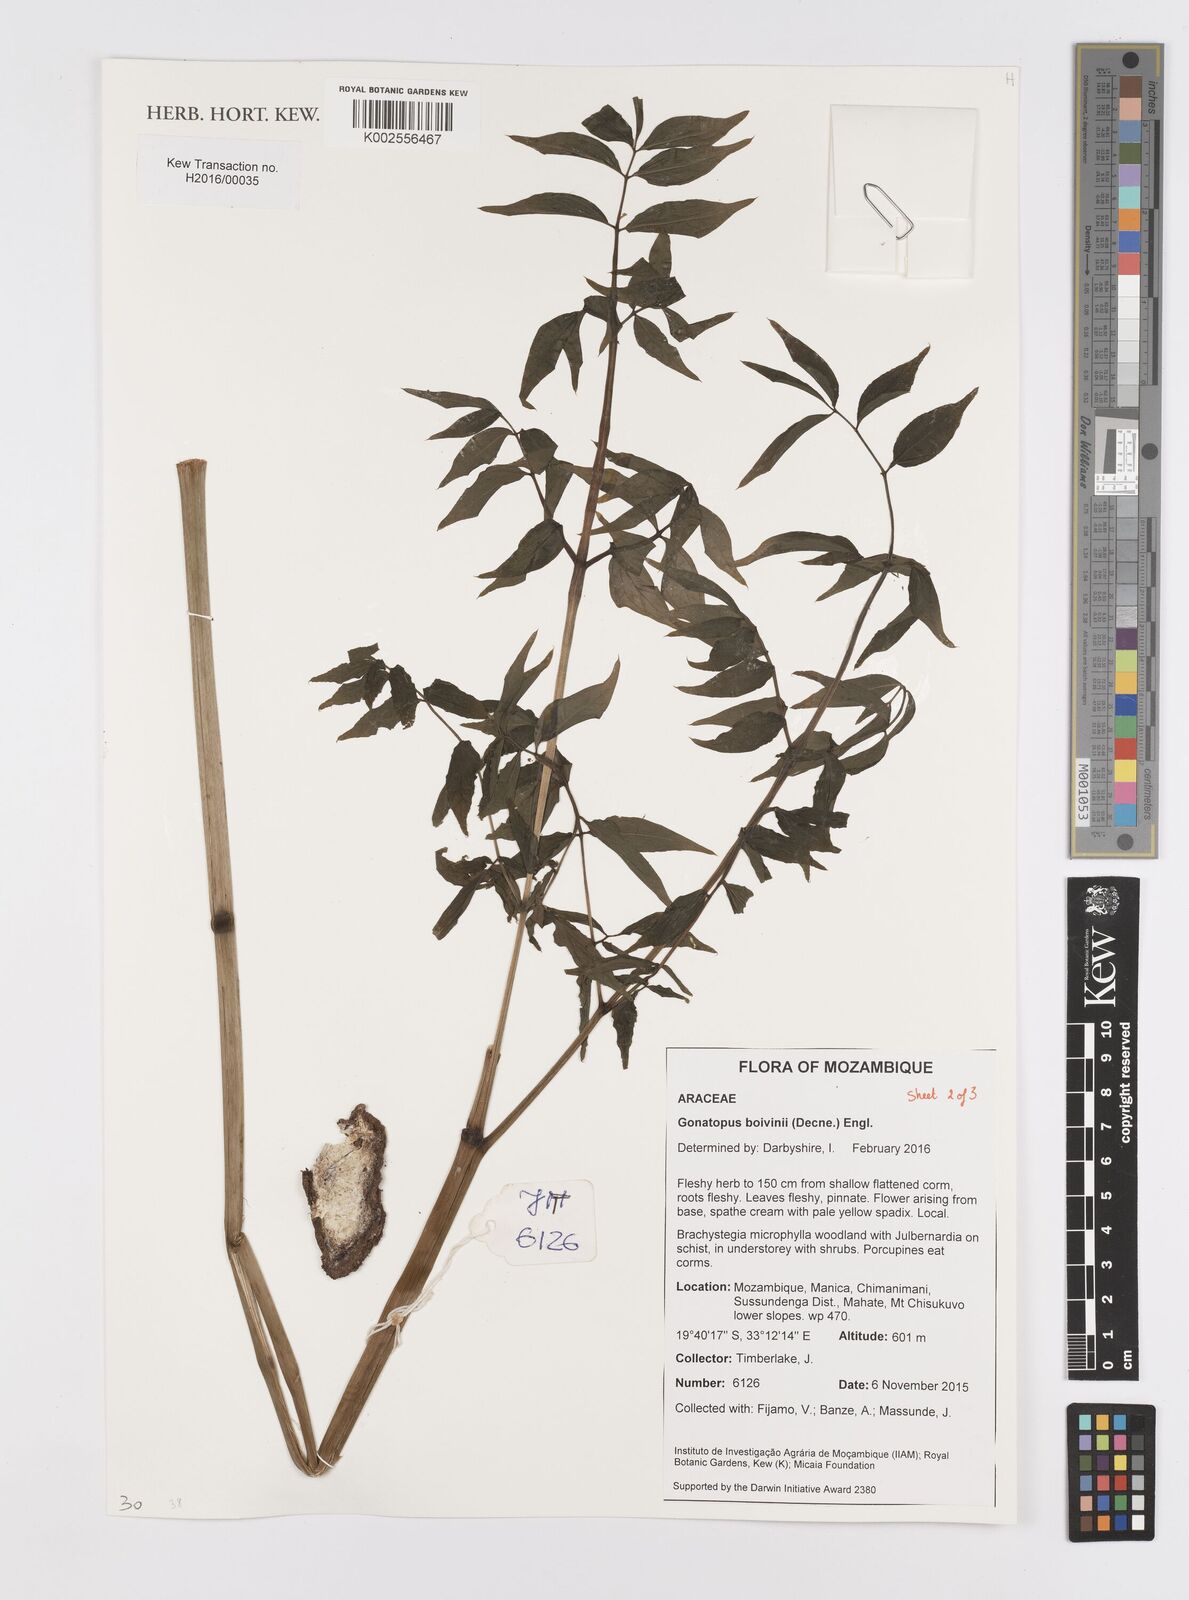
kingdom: Plantae
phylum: Tracheophyta
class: Liliopsida
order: Alismatales
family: Araceae
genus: Gonatopus
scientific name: Gonatopus boivinii
